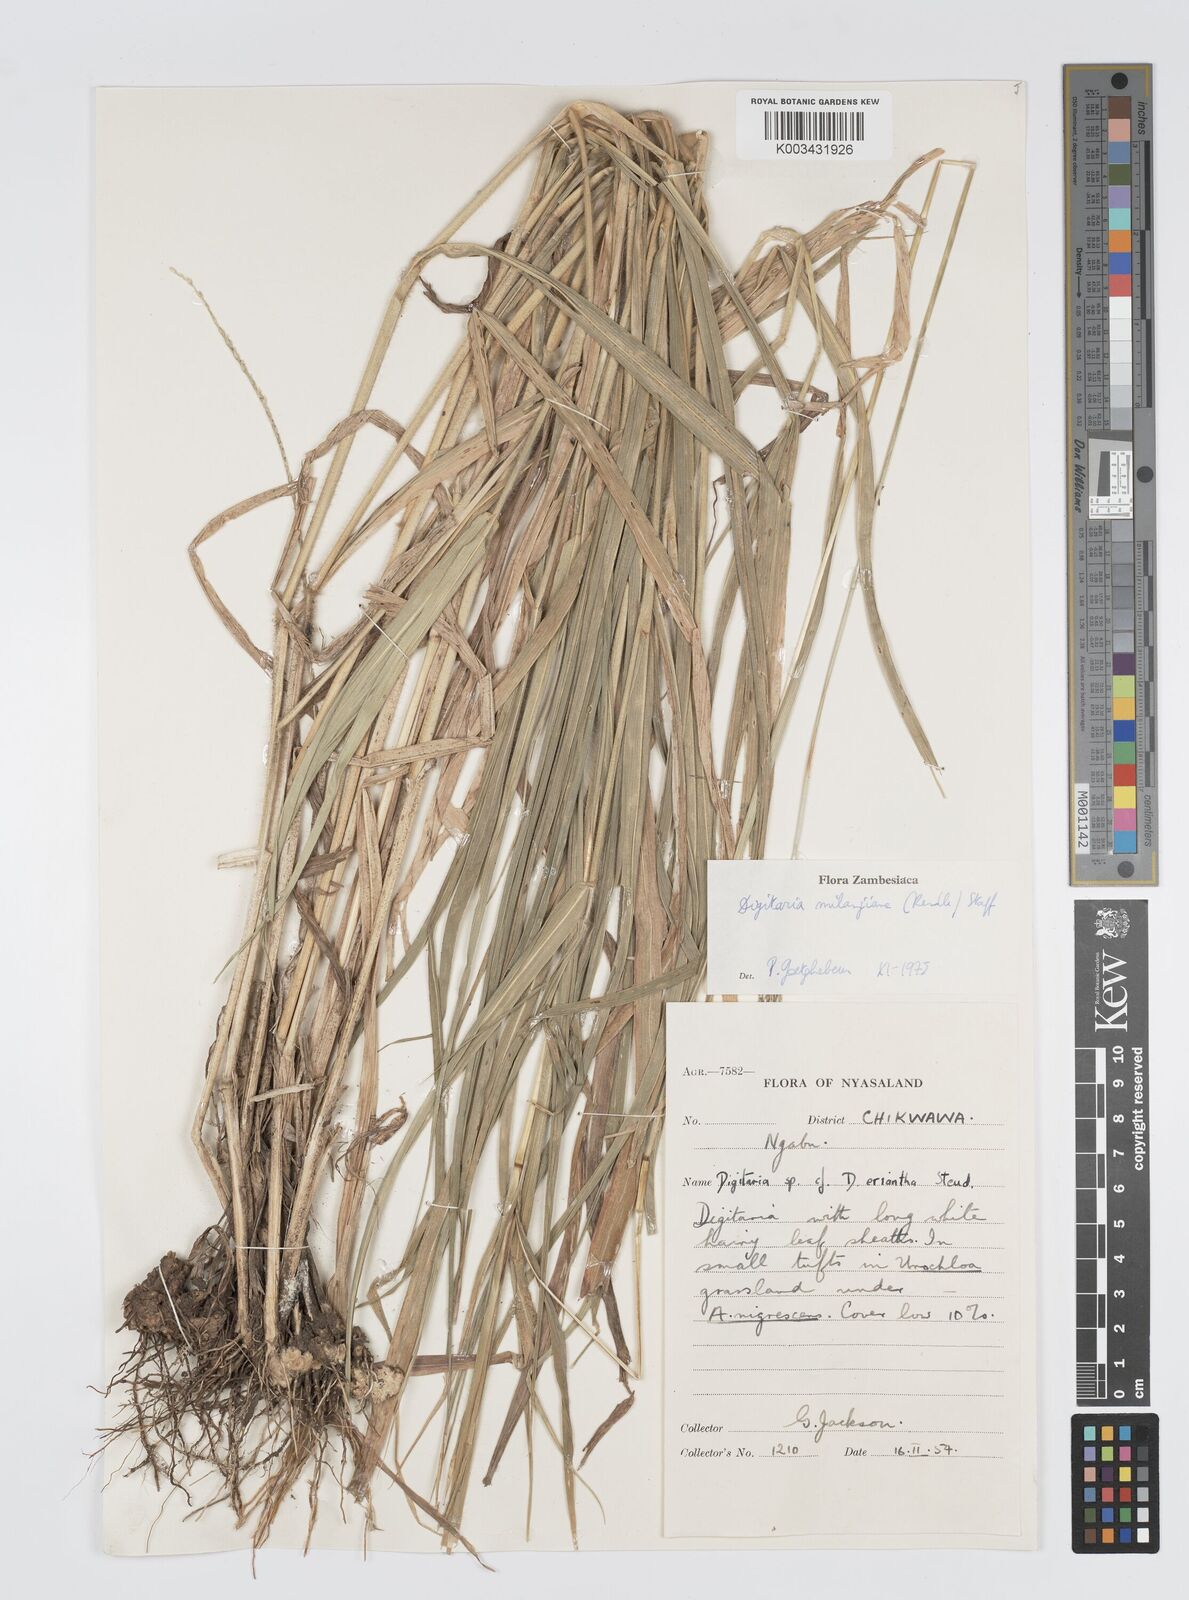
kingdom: Plantae
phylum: Tracheophyta
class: Liliopsida
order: Poales
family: Poaceae
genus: Digitaria
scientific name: Digitaria milanjiana
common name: Madagascar crabgrass
